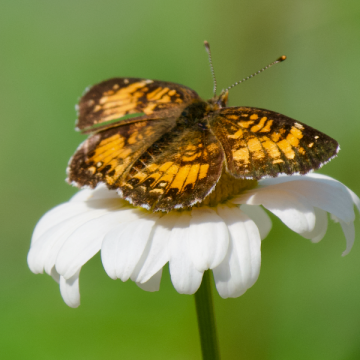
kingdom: Animalia
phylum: Arthropoda
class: Insecta
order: Lepidoptera
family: Nymphalidae
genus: Chlosyne
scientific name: Chlosyne harrisii
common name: Harris's Checkerspot
